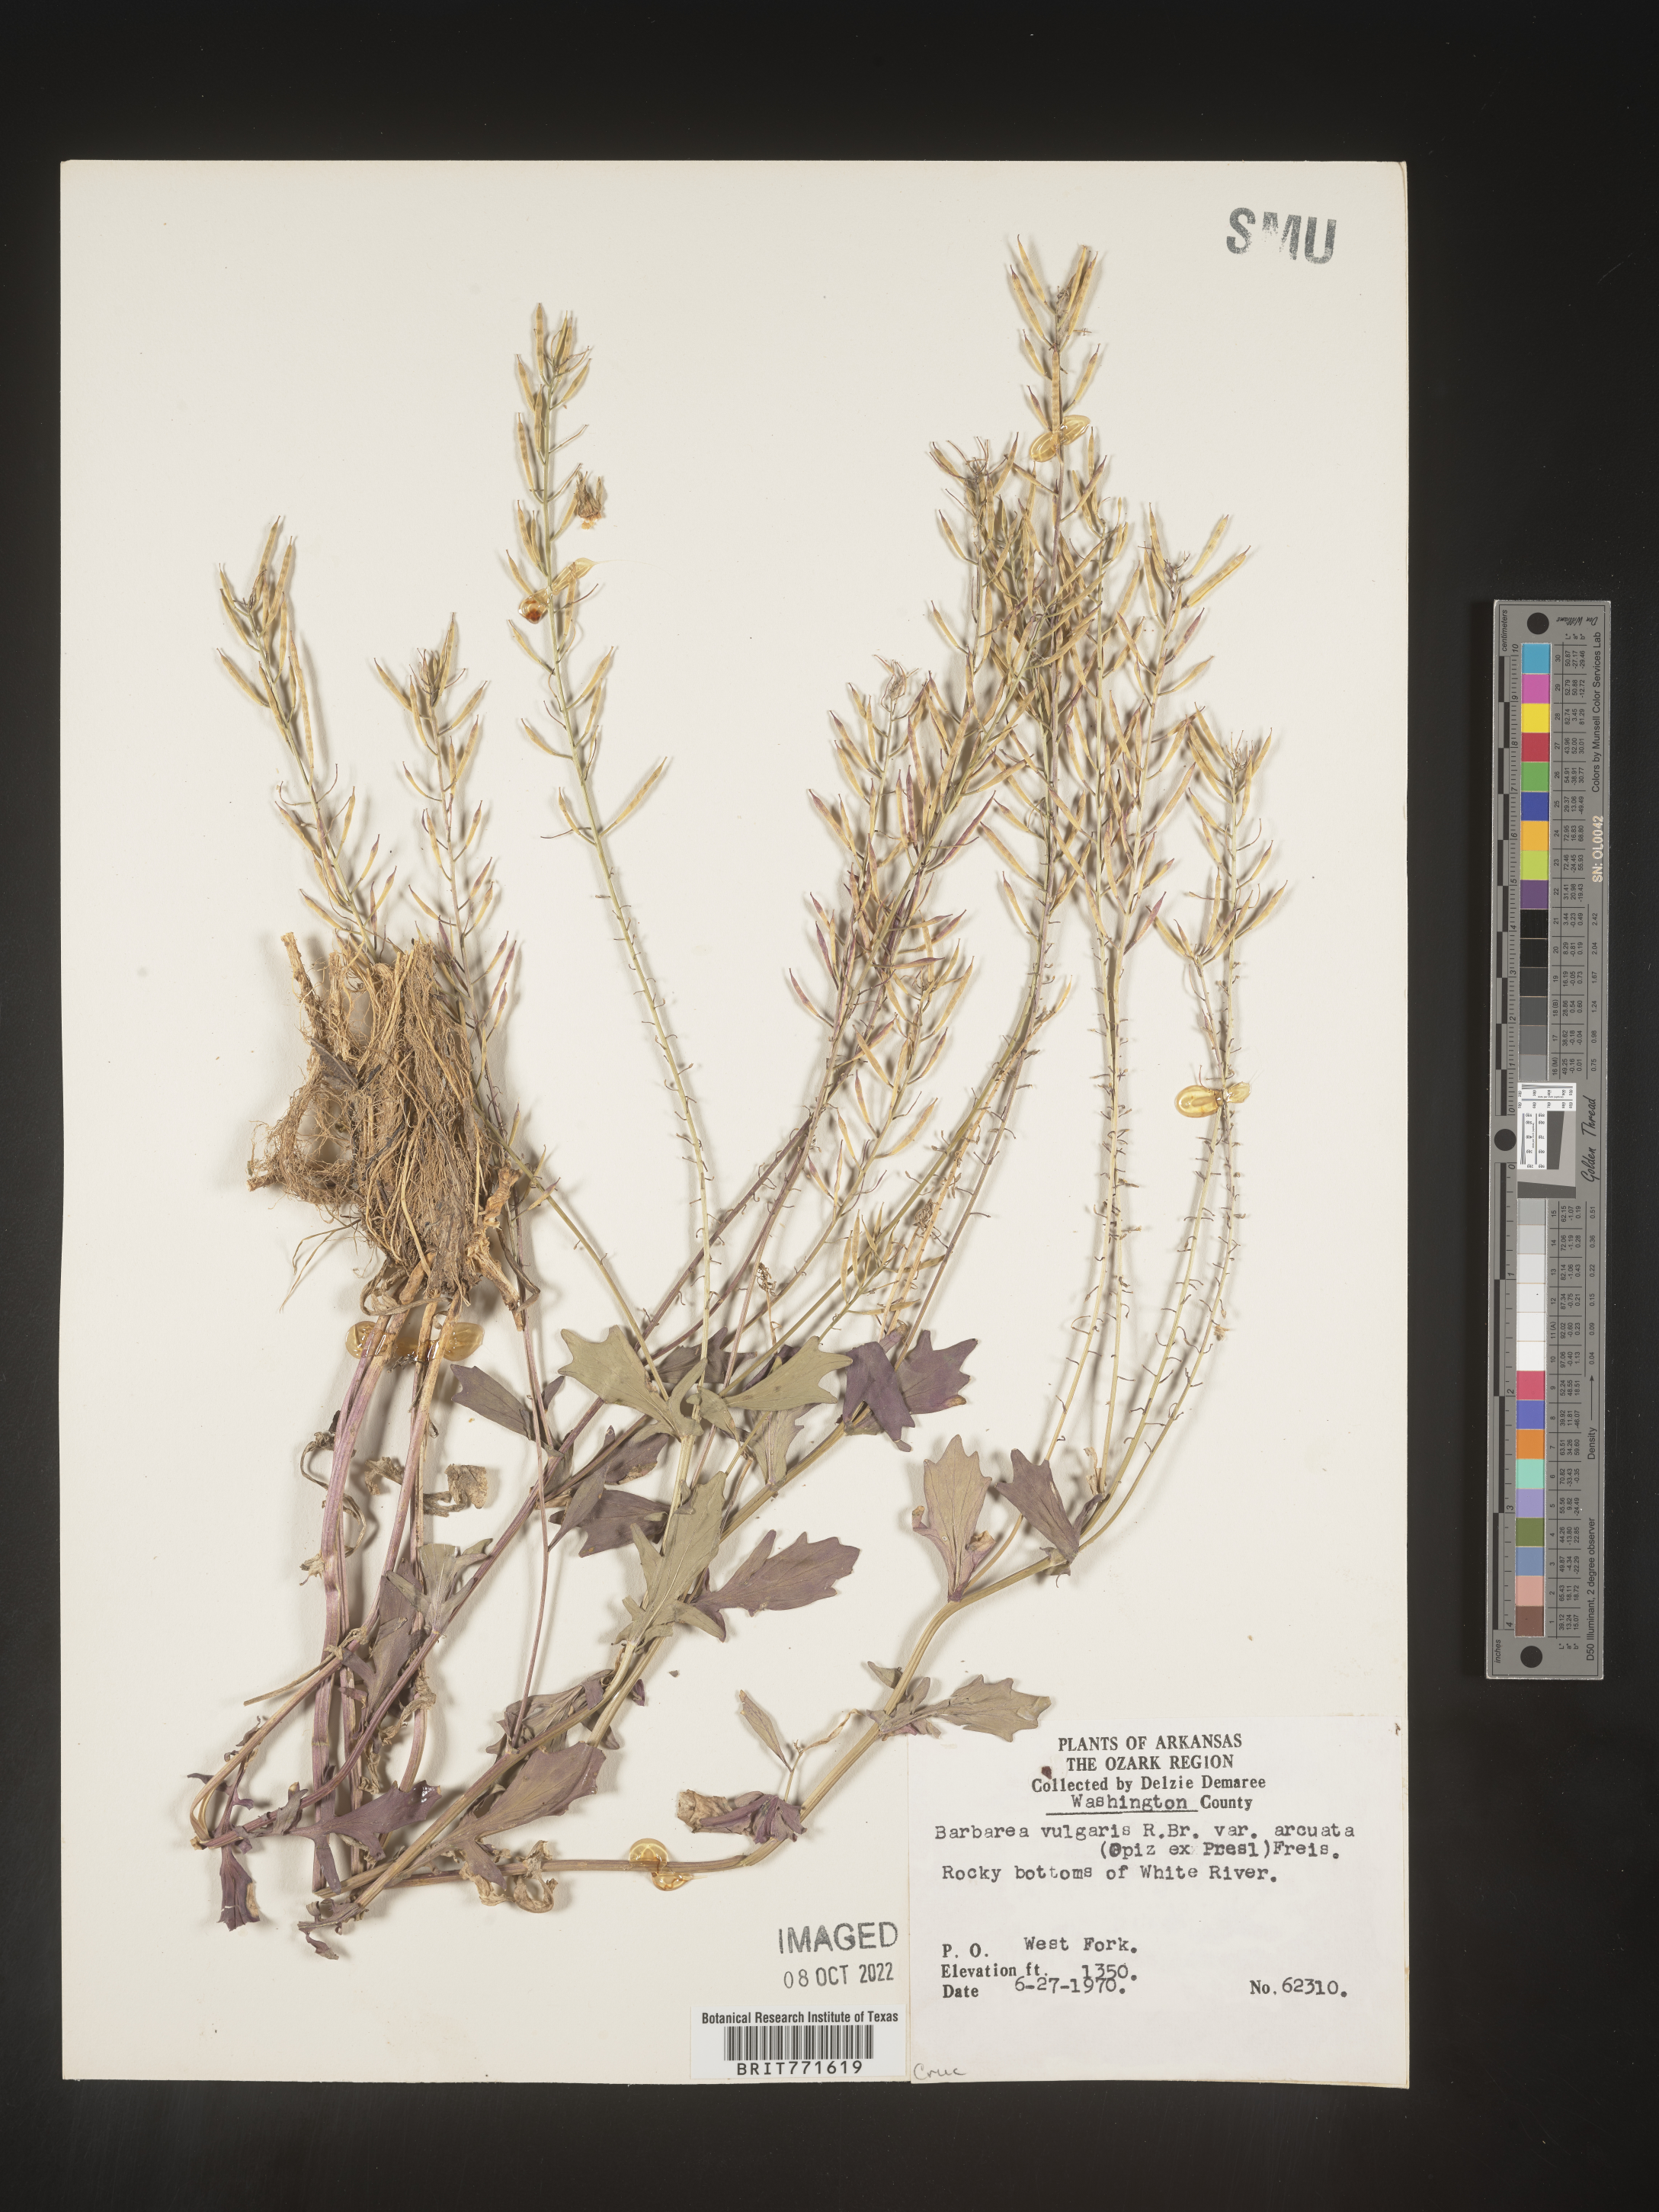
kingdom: Plantae
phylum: Tracheophyta
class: Magnoliopsida
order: Brassicales
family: Brassicaceae
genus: Barbarea
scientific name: Barbarea vulgaris
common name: Cressy-greens
